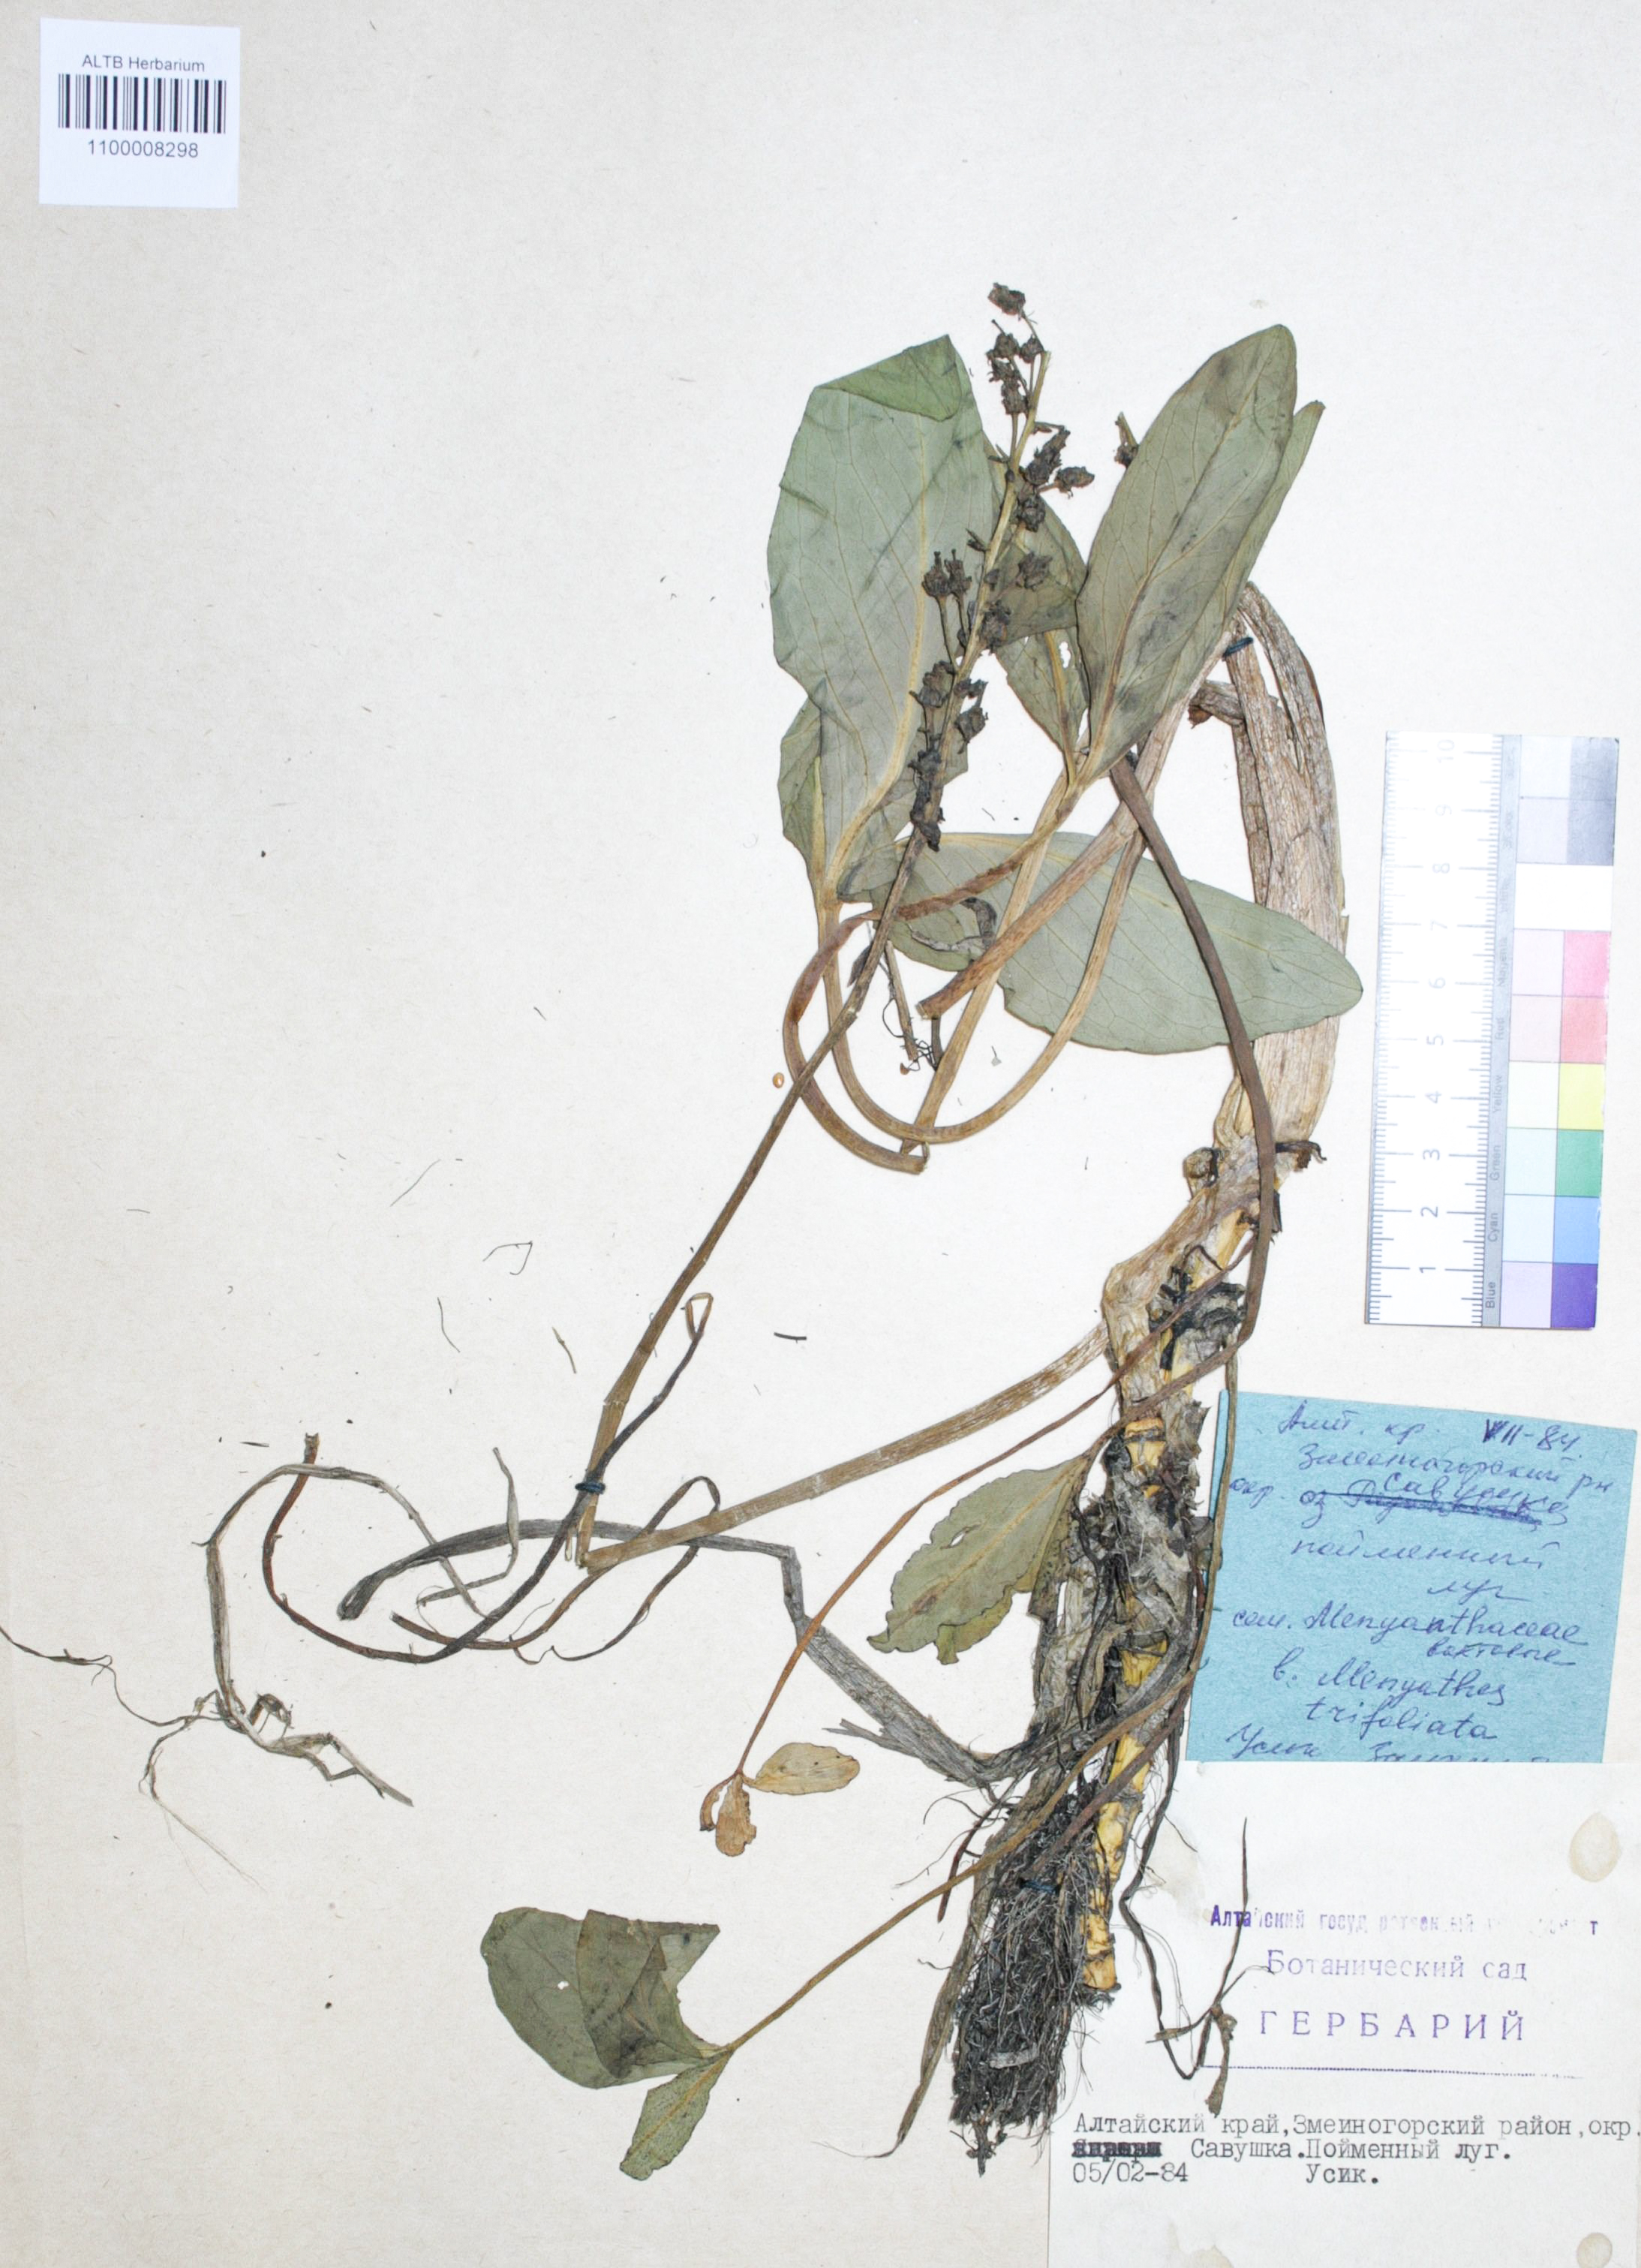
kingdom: Plantae
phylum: Tracheophyta
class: Magnoliopsida
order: Asterales
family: Menyanthaceae
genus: Menyanthes
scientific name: Menyanthes trifoliata
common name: Bogbean
